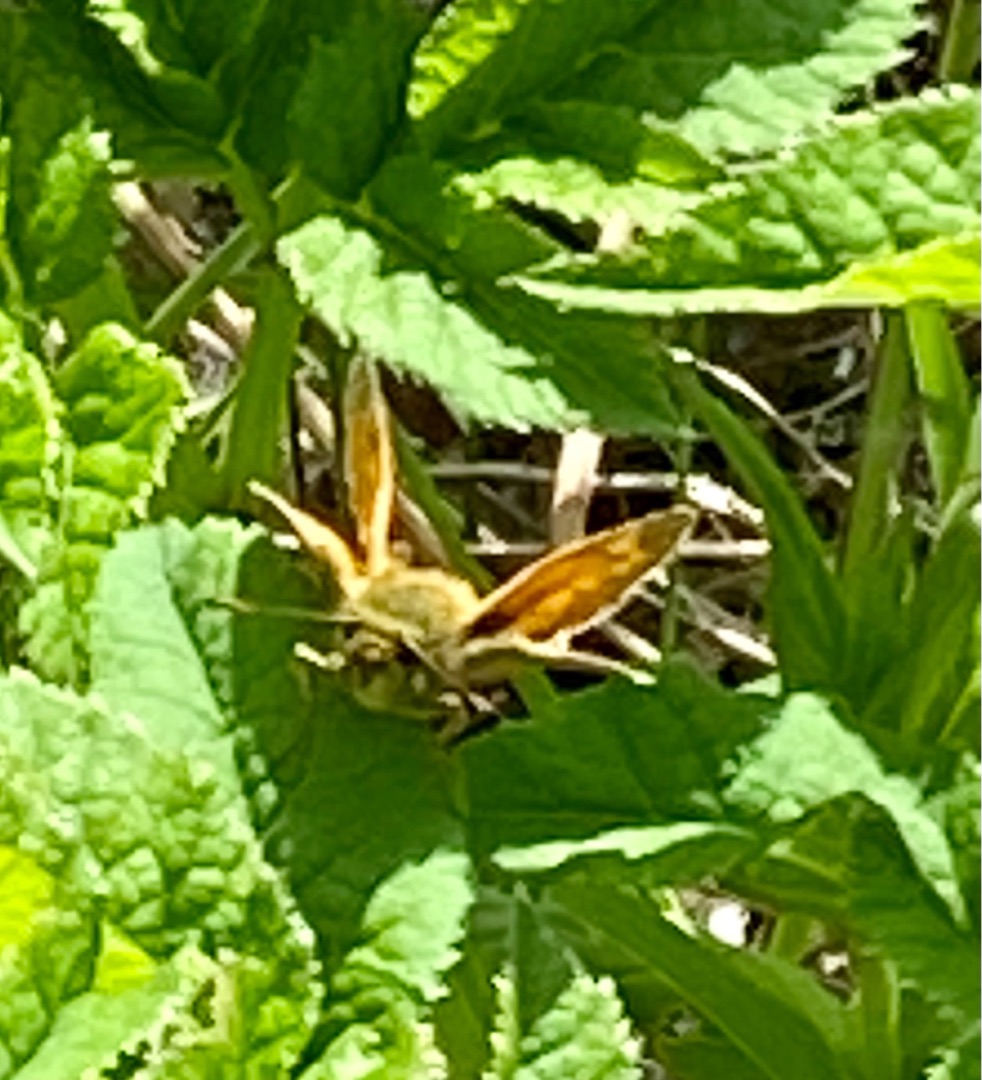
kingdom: Animalia
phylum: Arthropoda
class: Insecta
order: Lepidoptera
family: Hesperiidae
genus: Ochlodes
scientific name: Ochlodes venata
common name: Stor bredpande
